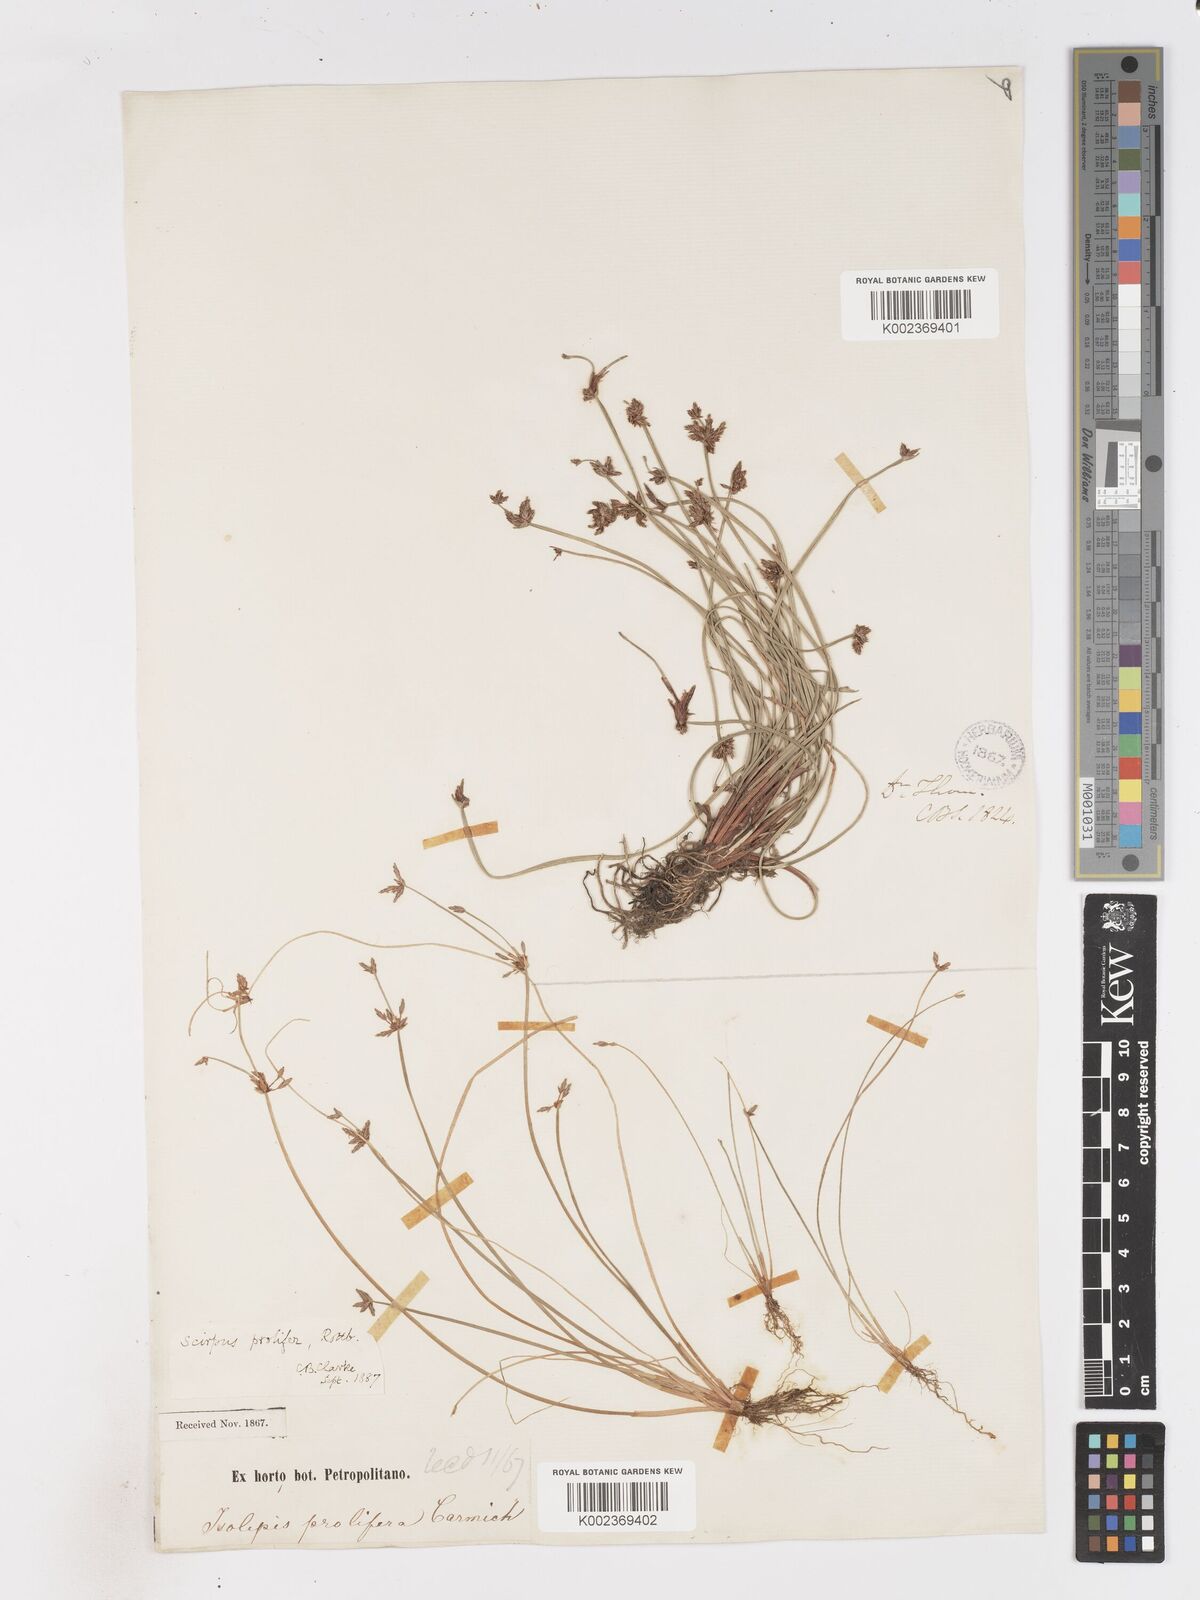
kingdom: Plantae
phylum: Tracheophyta
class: Liliopsida
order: Poales
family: Cyperaceae
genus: Isolepis
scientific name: Isolepis prolifera
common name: Proliferating bulrush
